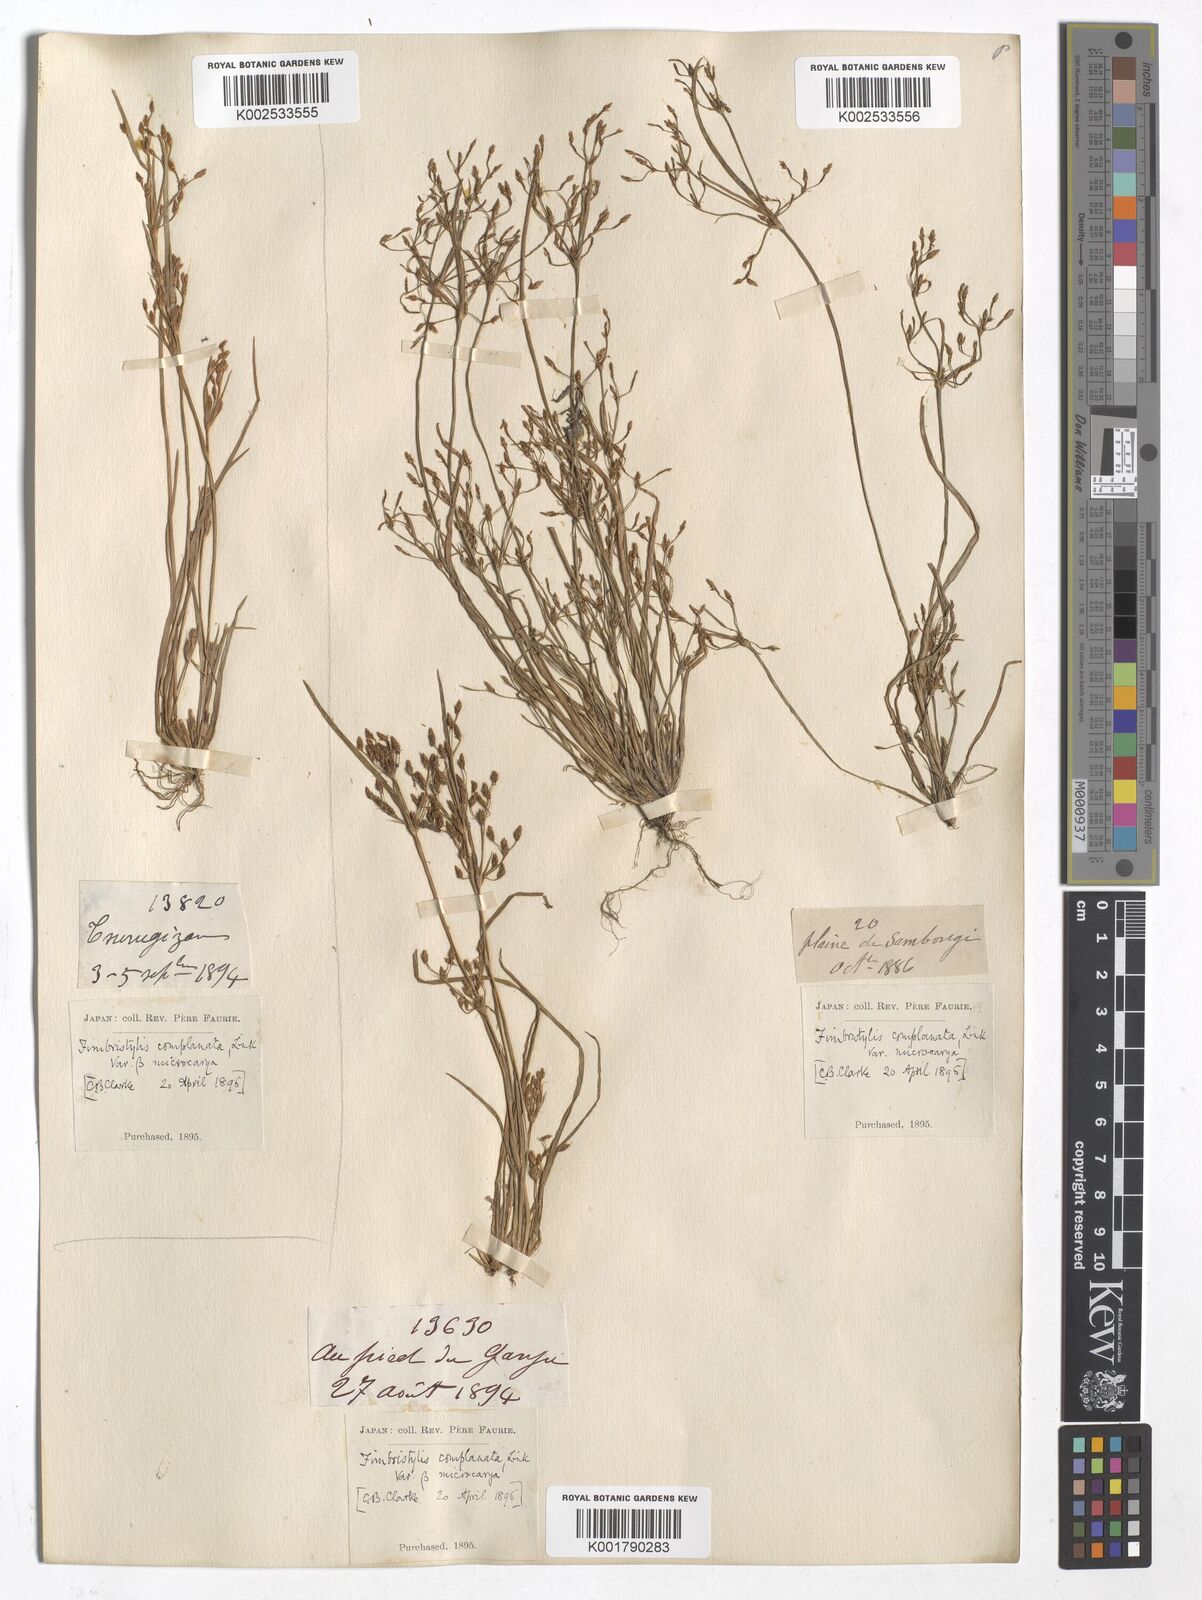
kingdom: Plantae
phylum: Tracheophyta
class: Liliopsida
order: Poales
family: Cyperaceae
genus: Fimbristylis
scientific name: Fimbristylis microcarya
